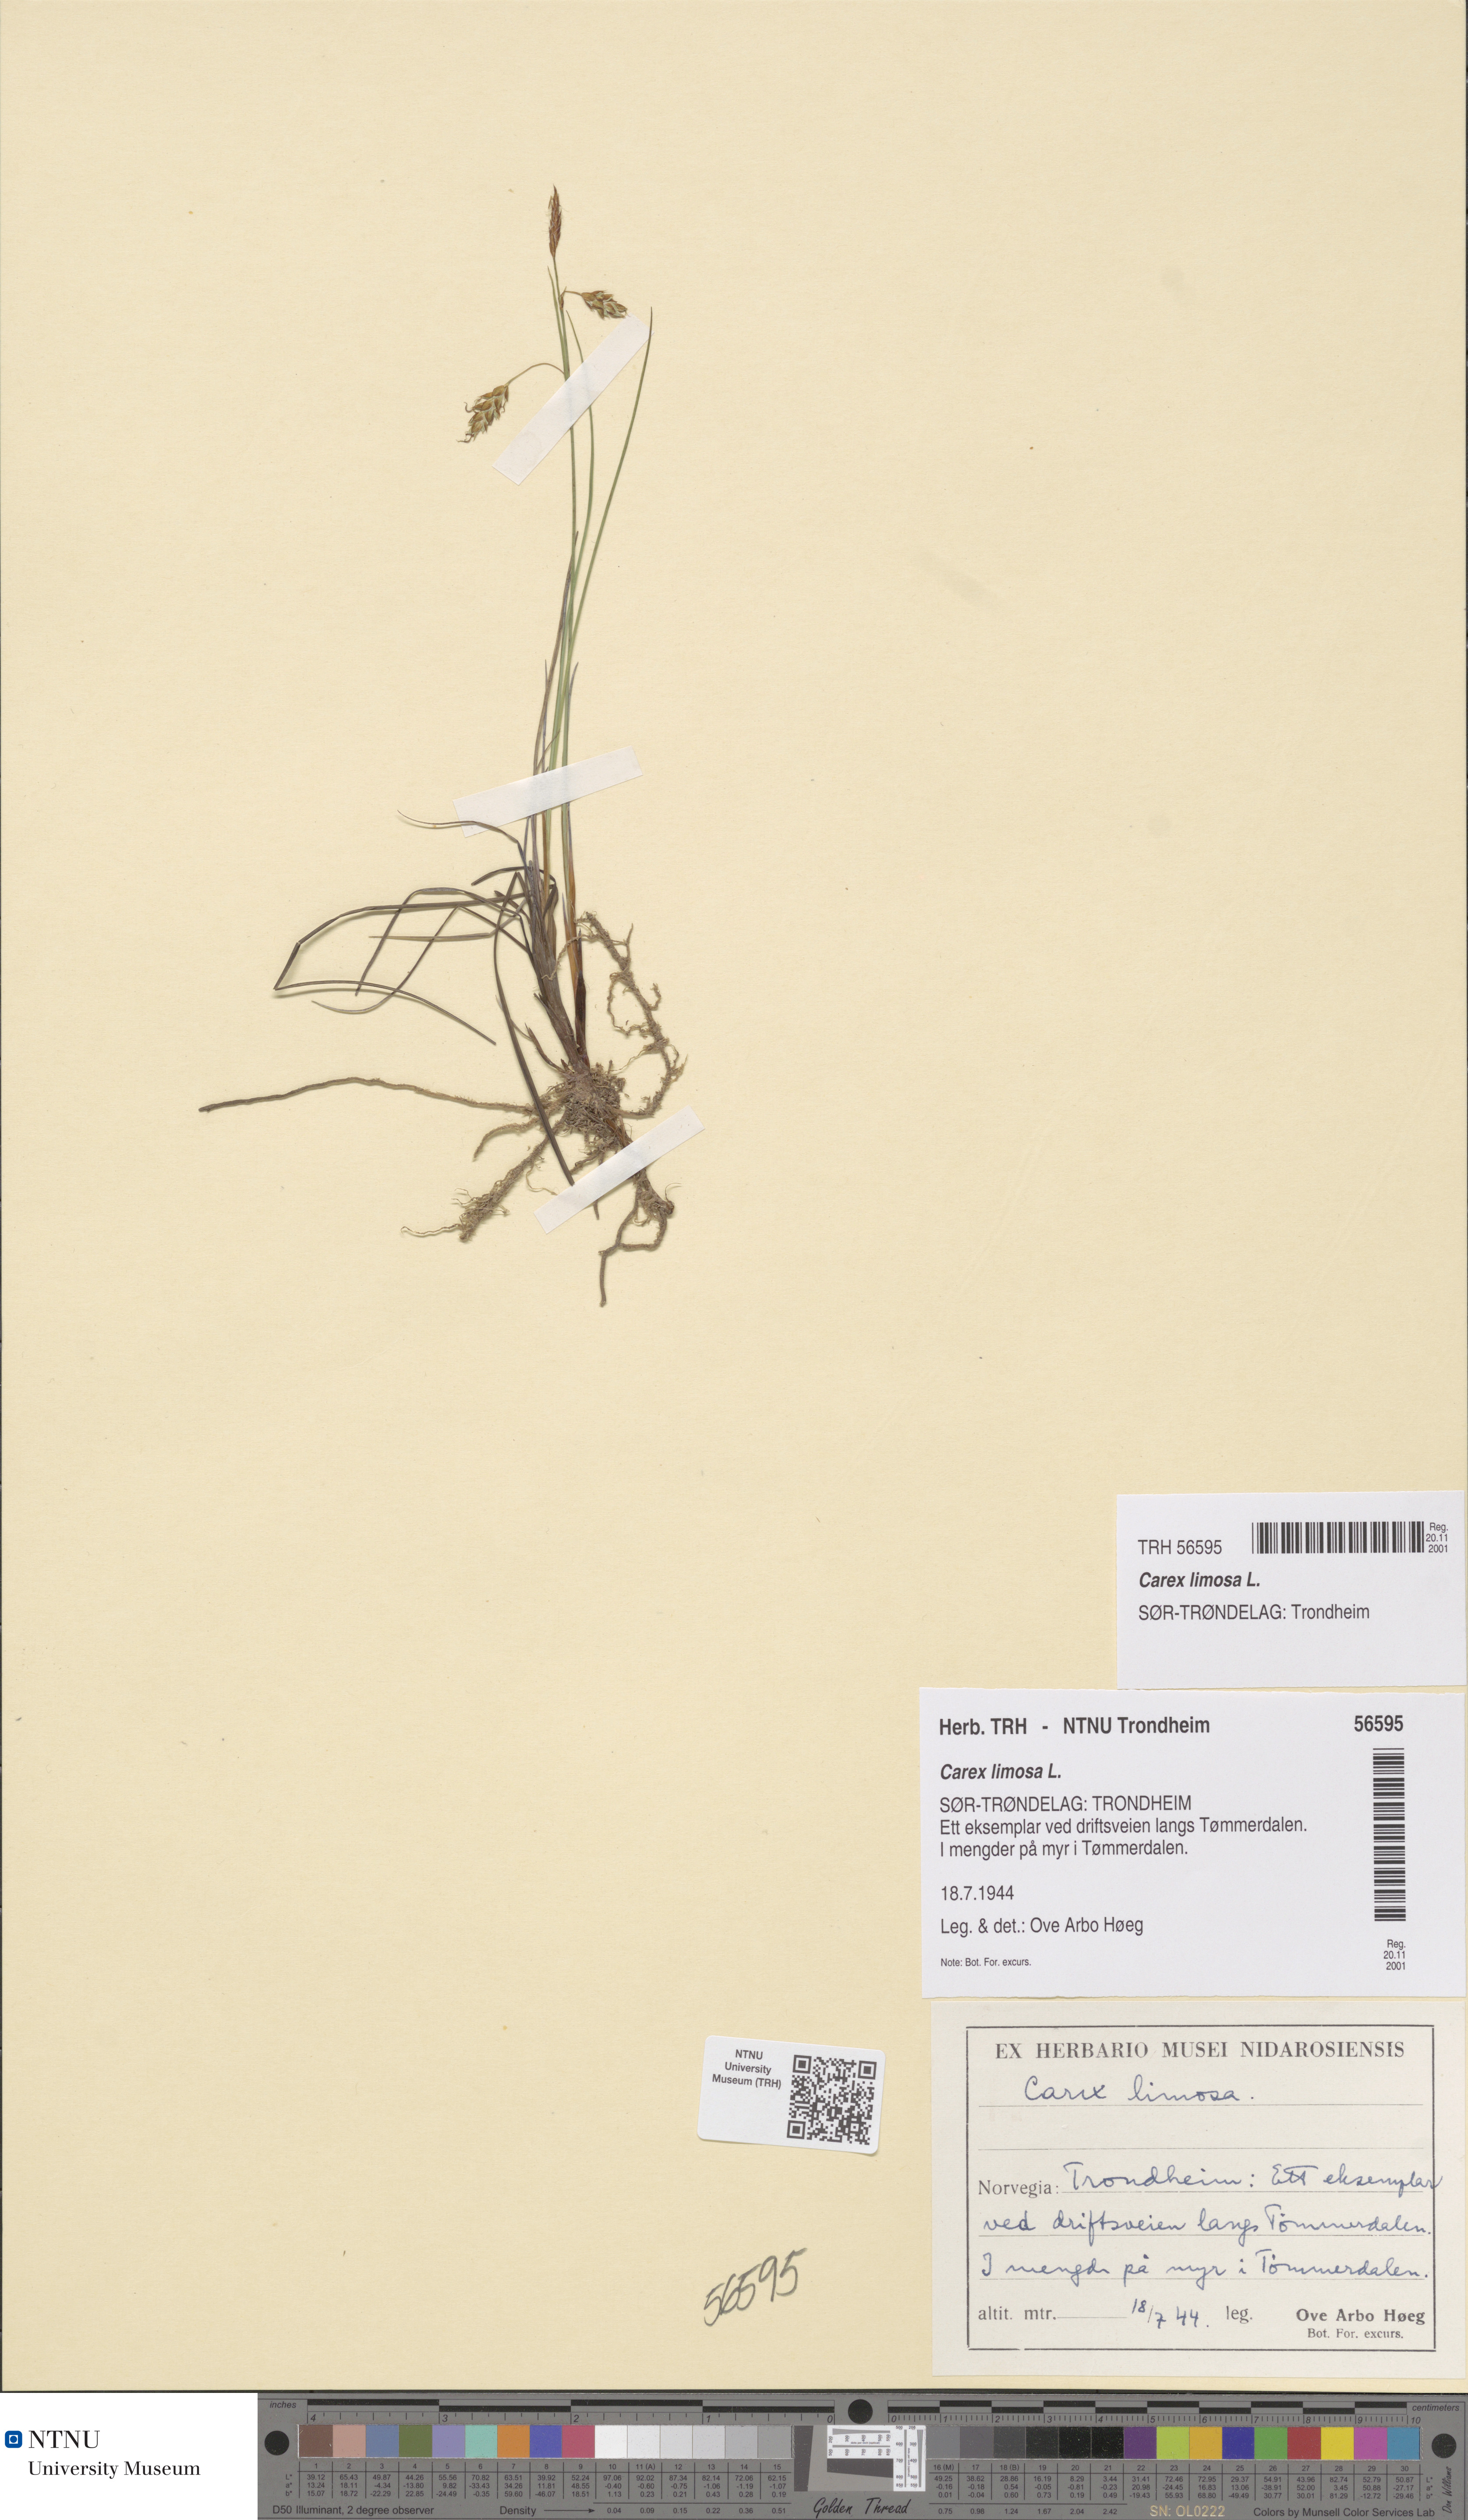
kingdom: Plantae
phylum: Tracheophyta
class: Liliopsida
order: Poales
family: Cyperaceae
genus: Carex
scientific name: Carex limosa
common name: Bog sedge
